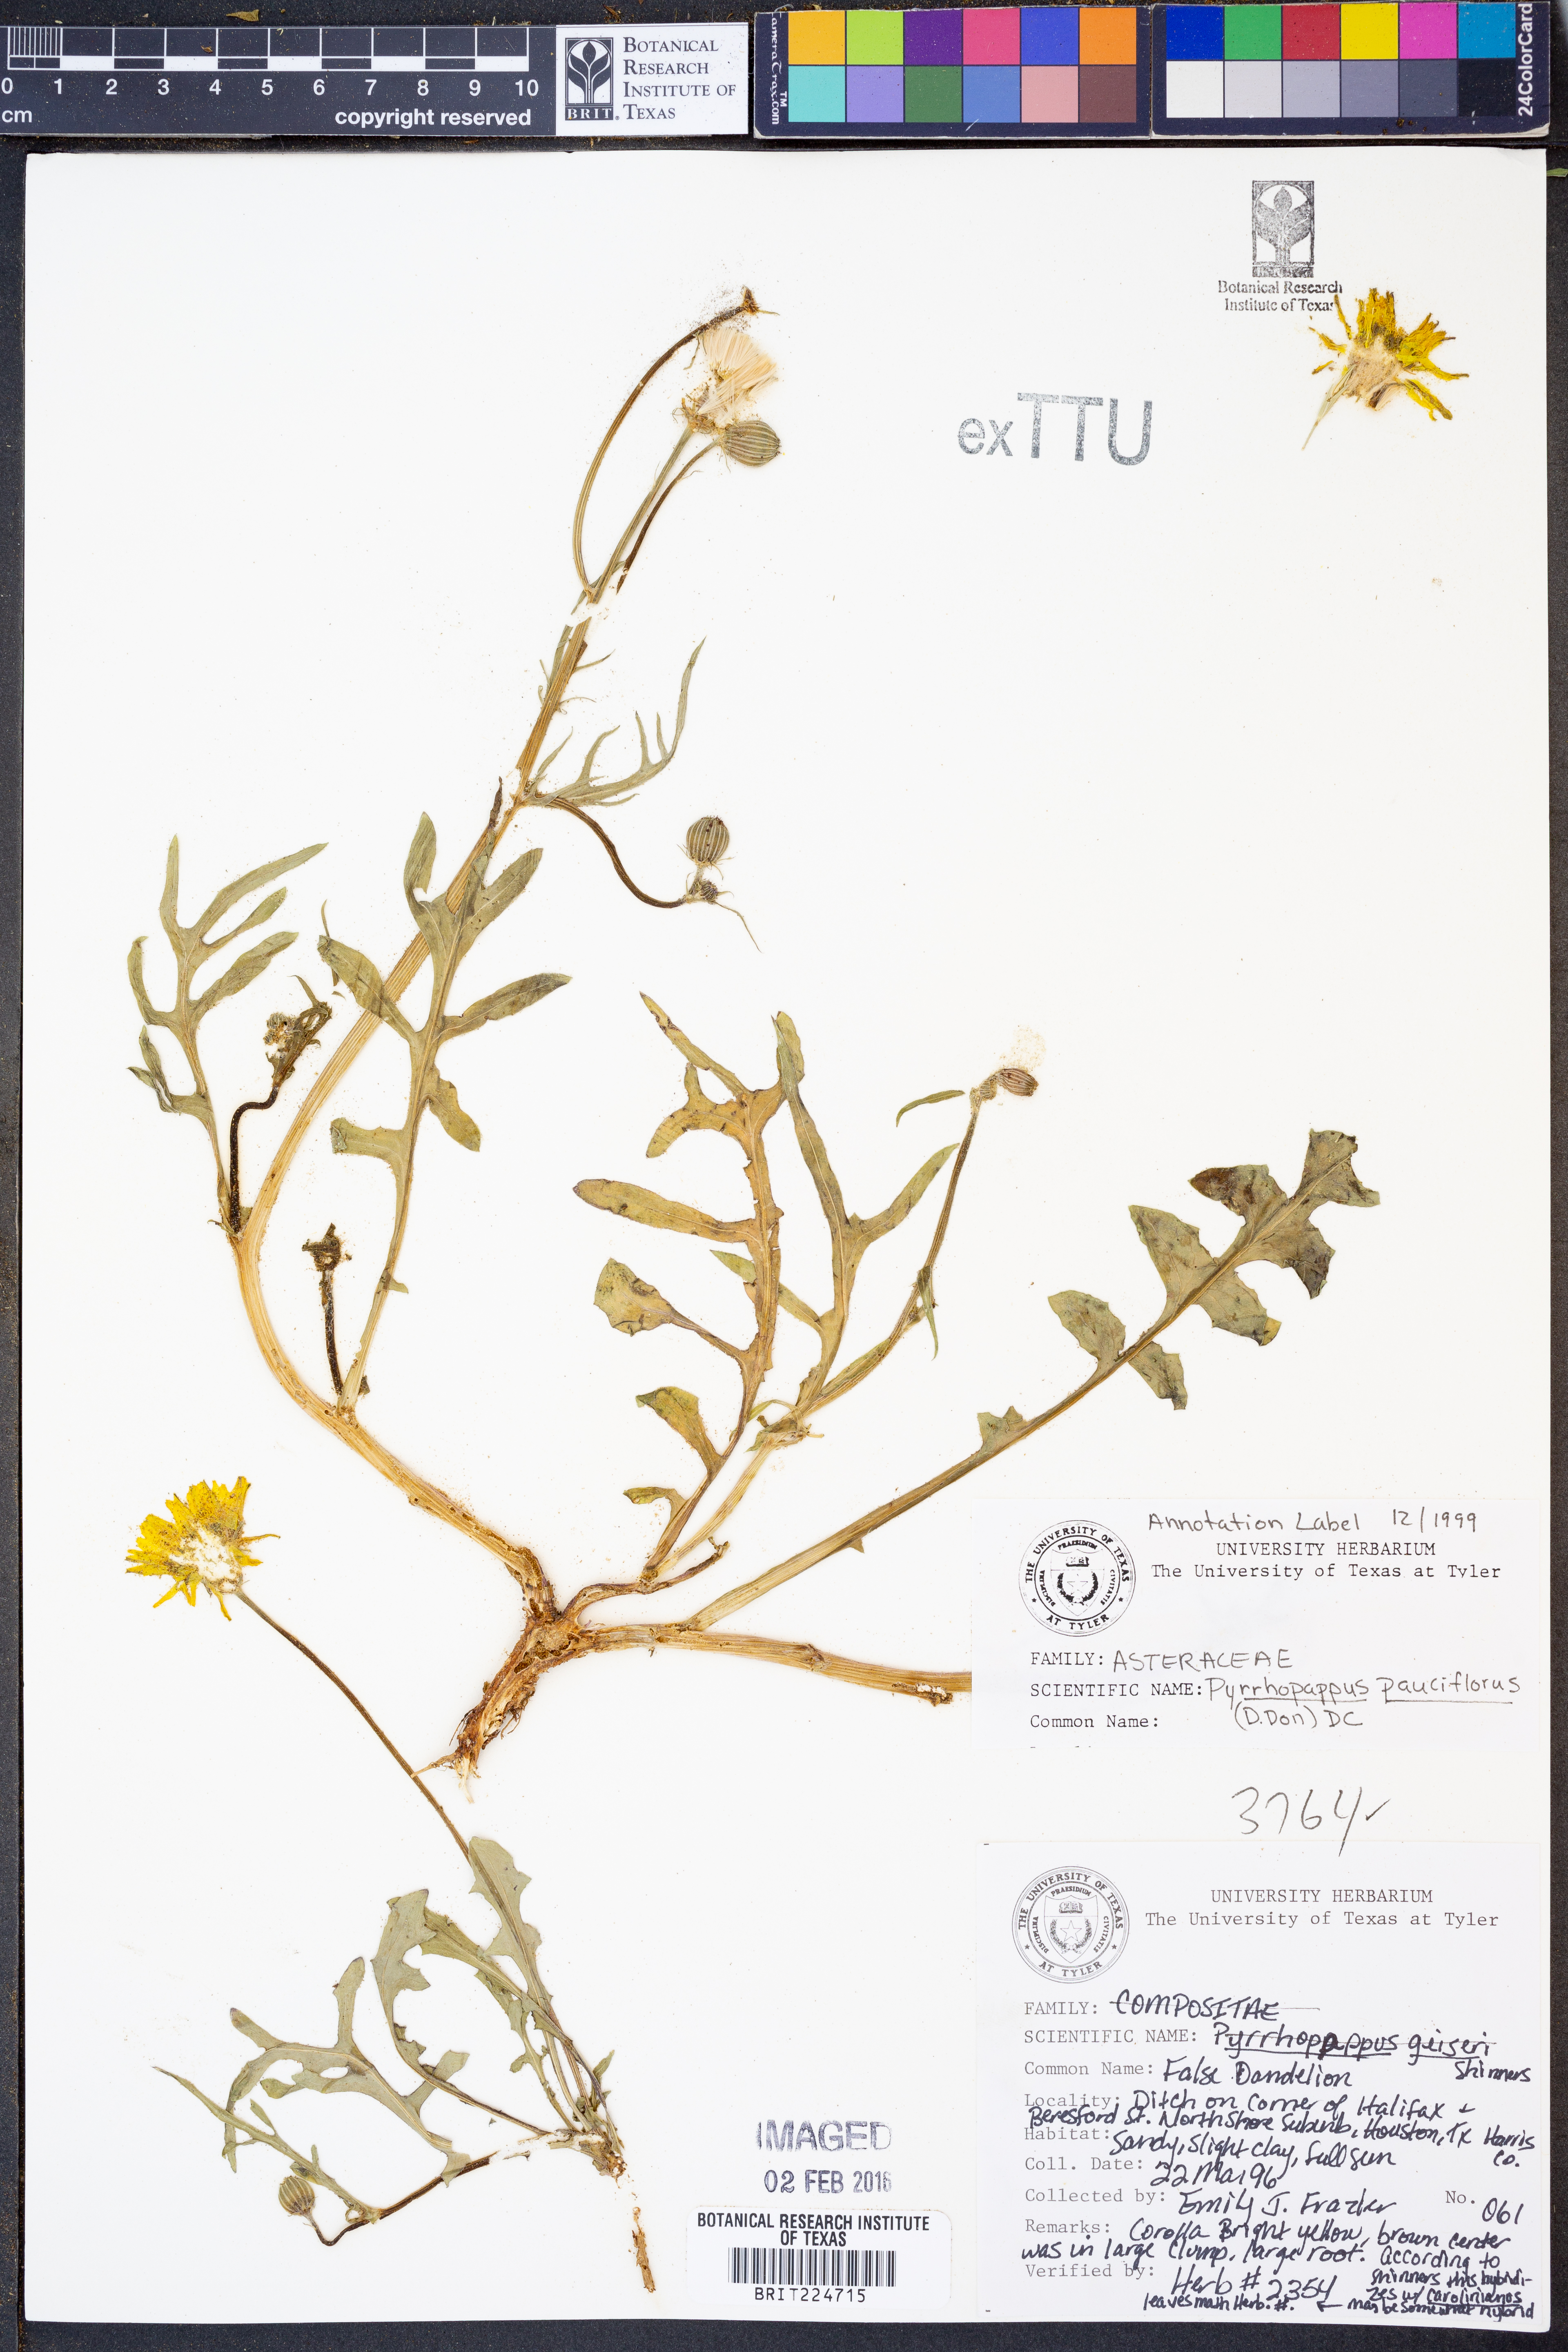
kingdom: Plantae
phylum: Tracheophyta
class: Magnoliopsida
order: Asterales
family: Asteraceae
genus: Pyrrhopappus
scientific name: Pyrrhopappus pauciflorus
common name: Texas false dandelion
